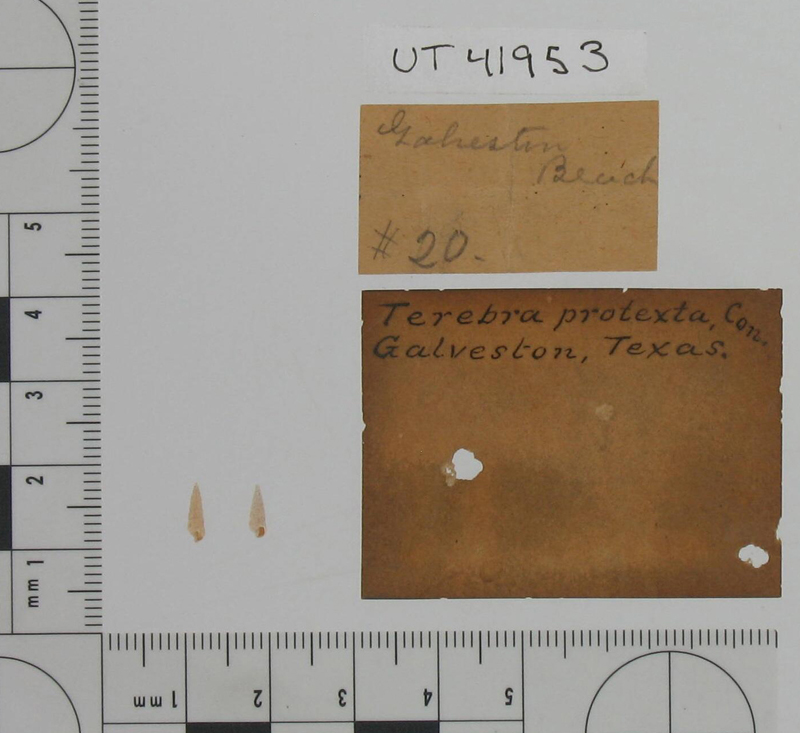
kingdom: Animalia
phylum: Mollusca
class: Gastropoda
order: Neogastropoda
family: Terebridae
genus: Neoterebra
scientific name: Neoterebra protexta
